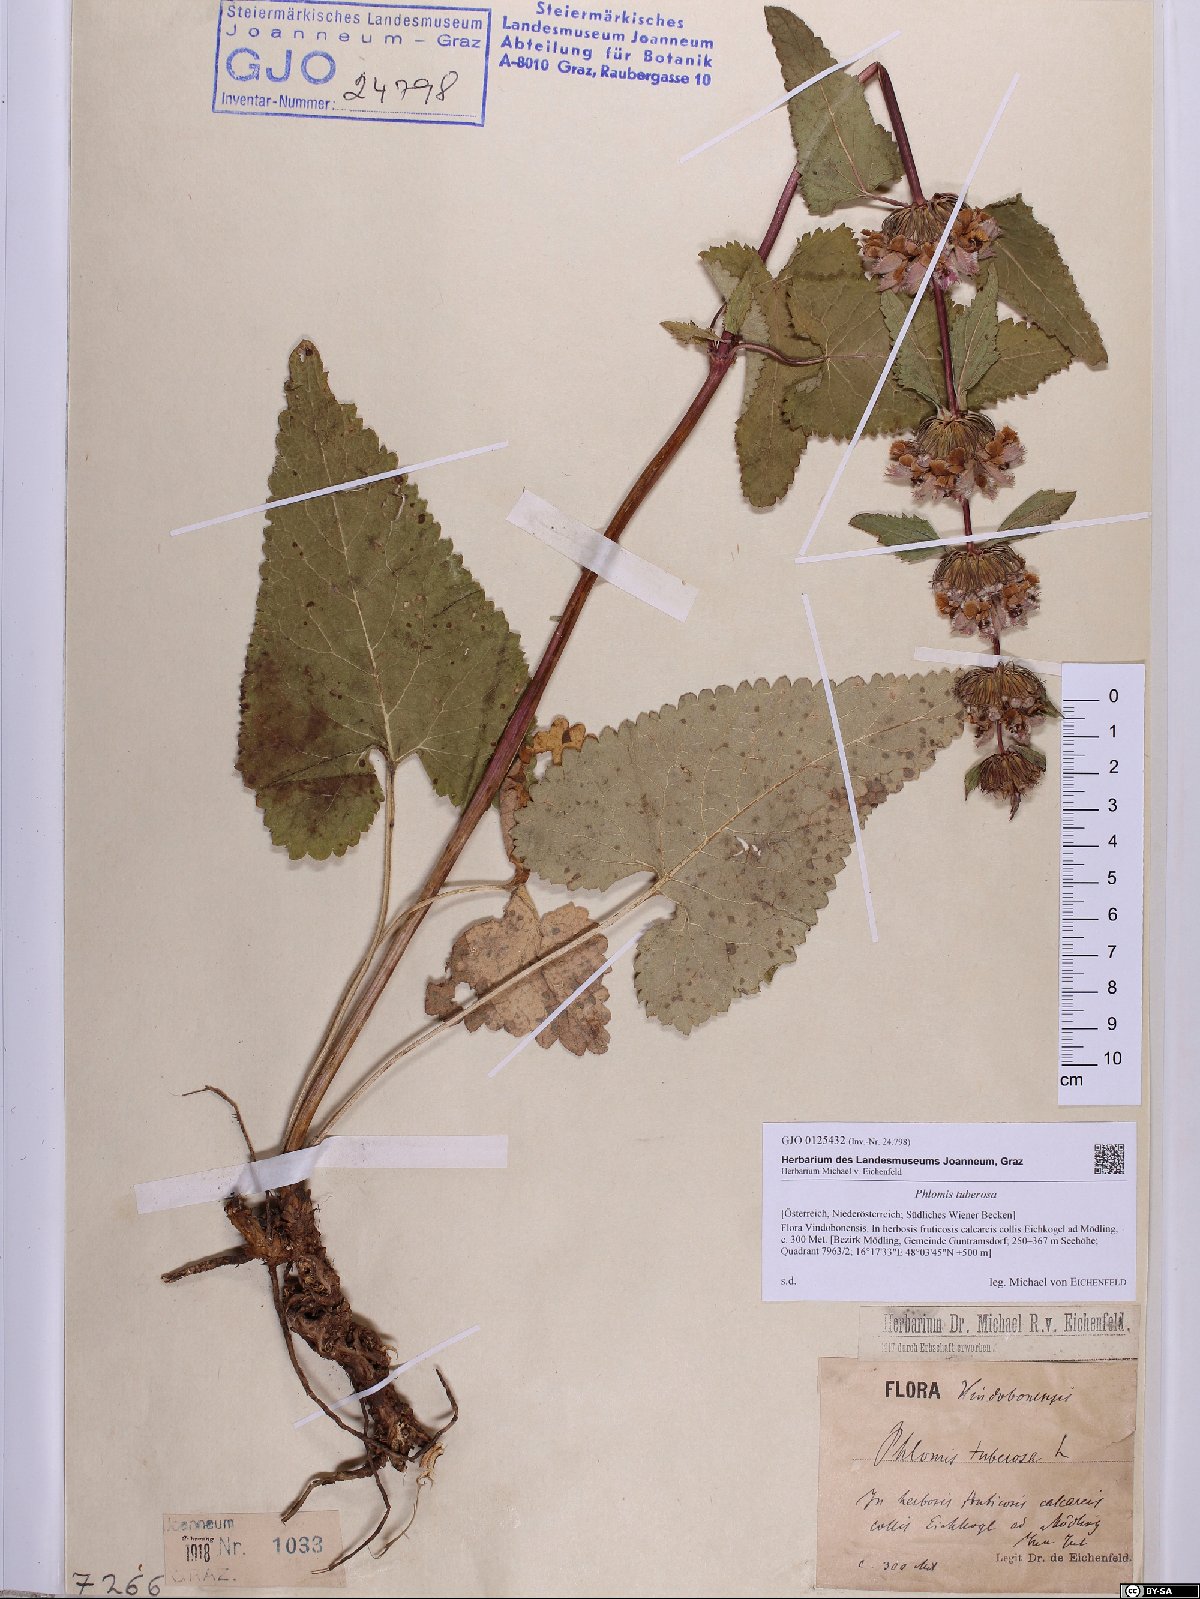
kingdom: Plantae
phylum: Tracheophyta
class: Magnoliopsida
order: Lamiales
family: Lamiaceae
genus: Phlomoides
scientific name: Phlomoides tuberosa
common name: Tuberous jerusalem sage
